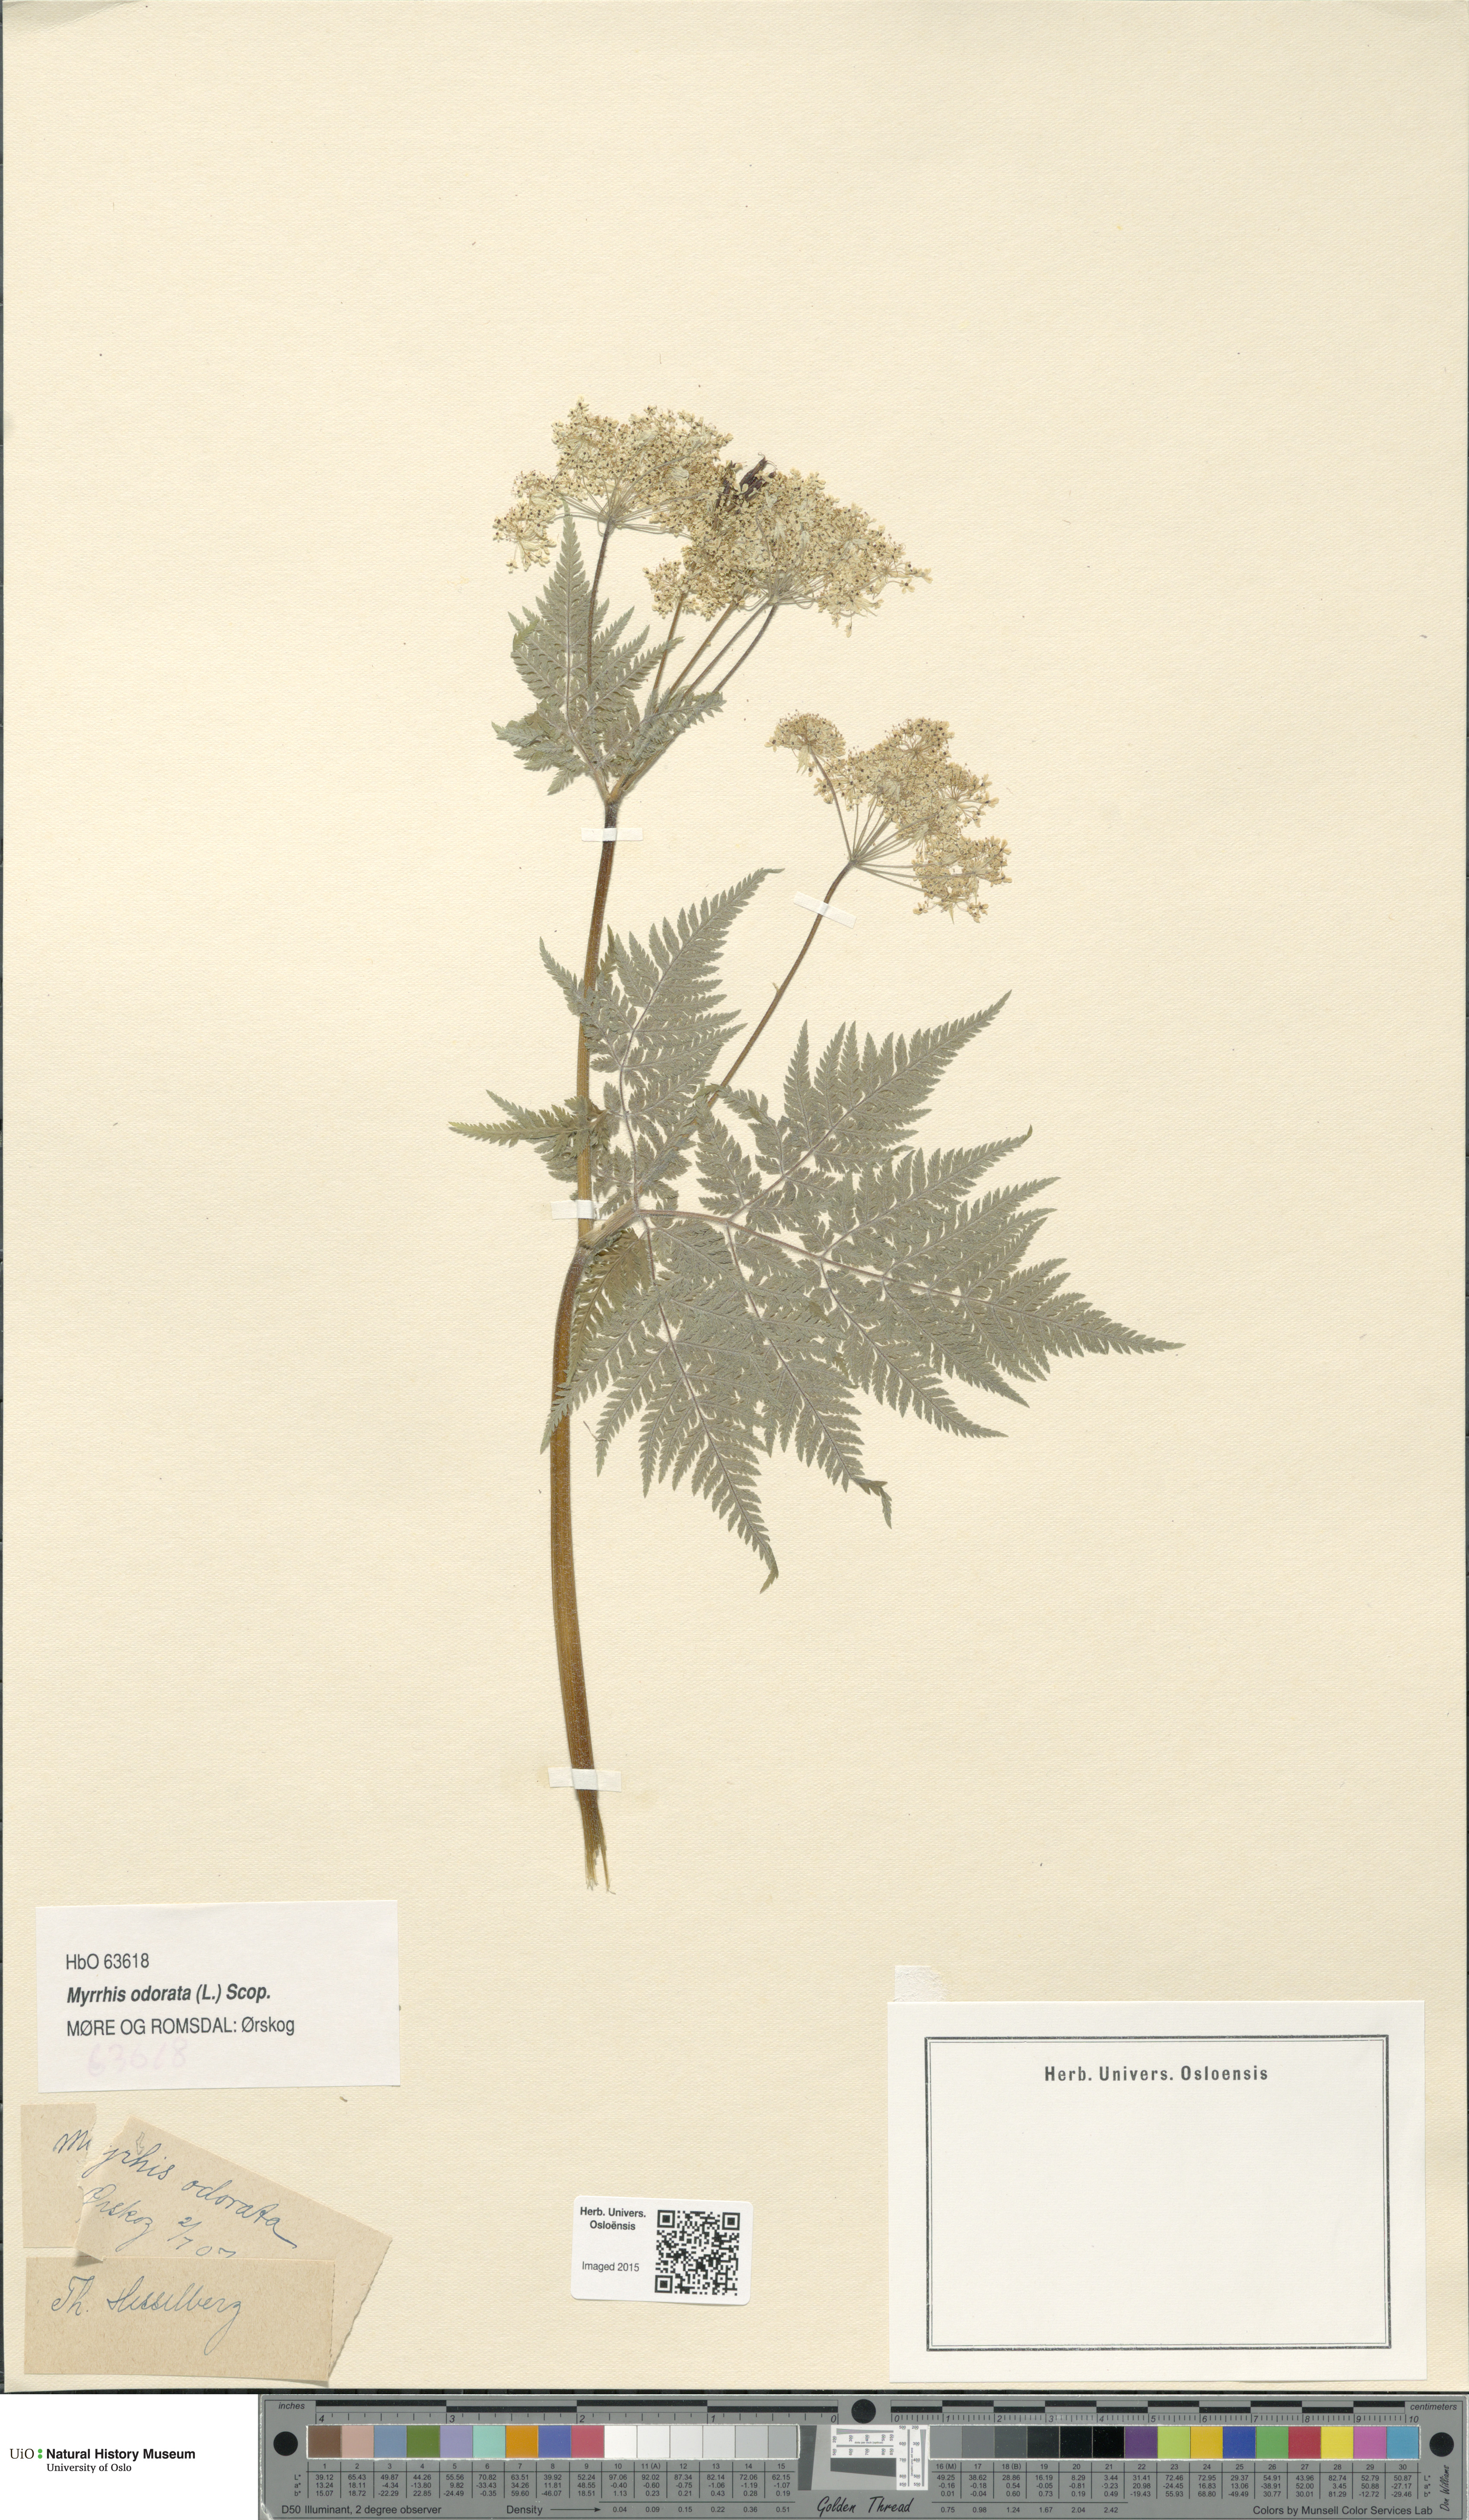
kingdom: Plantae
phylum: Tracheophyta
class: Magnoliopsida
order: Apiales
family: Apiaceae
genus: Myrrhis
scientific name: Myrrhis odorata
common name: Sweet cicely
